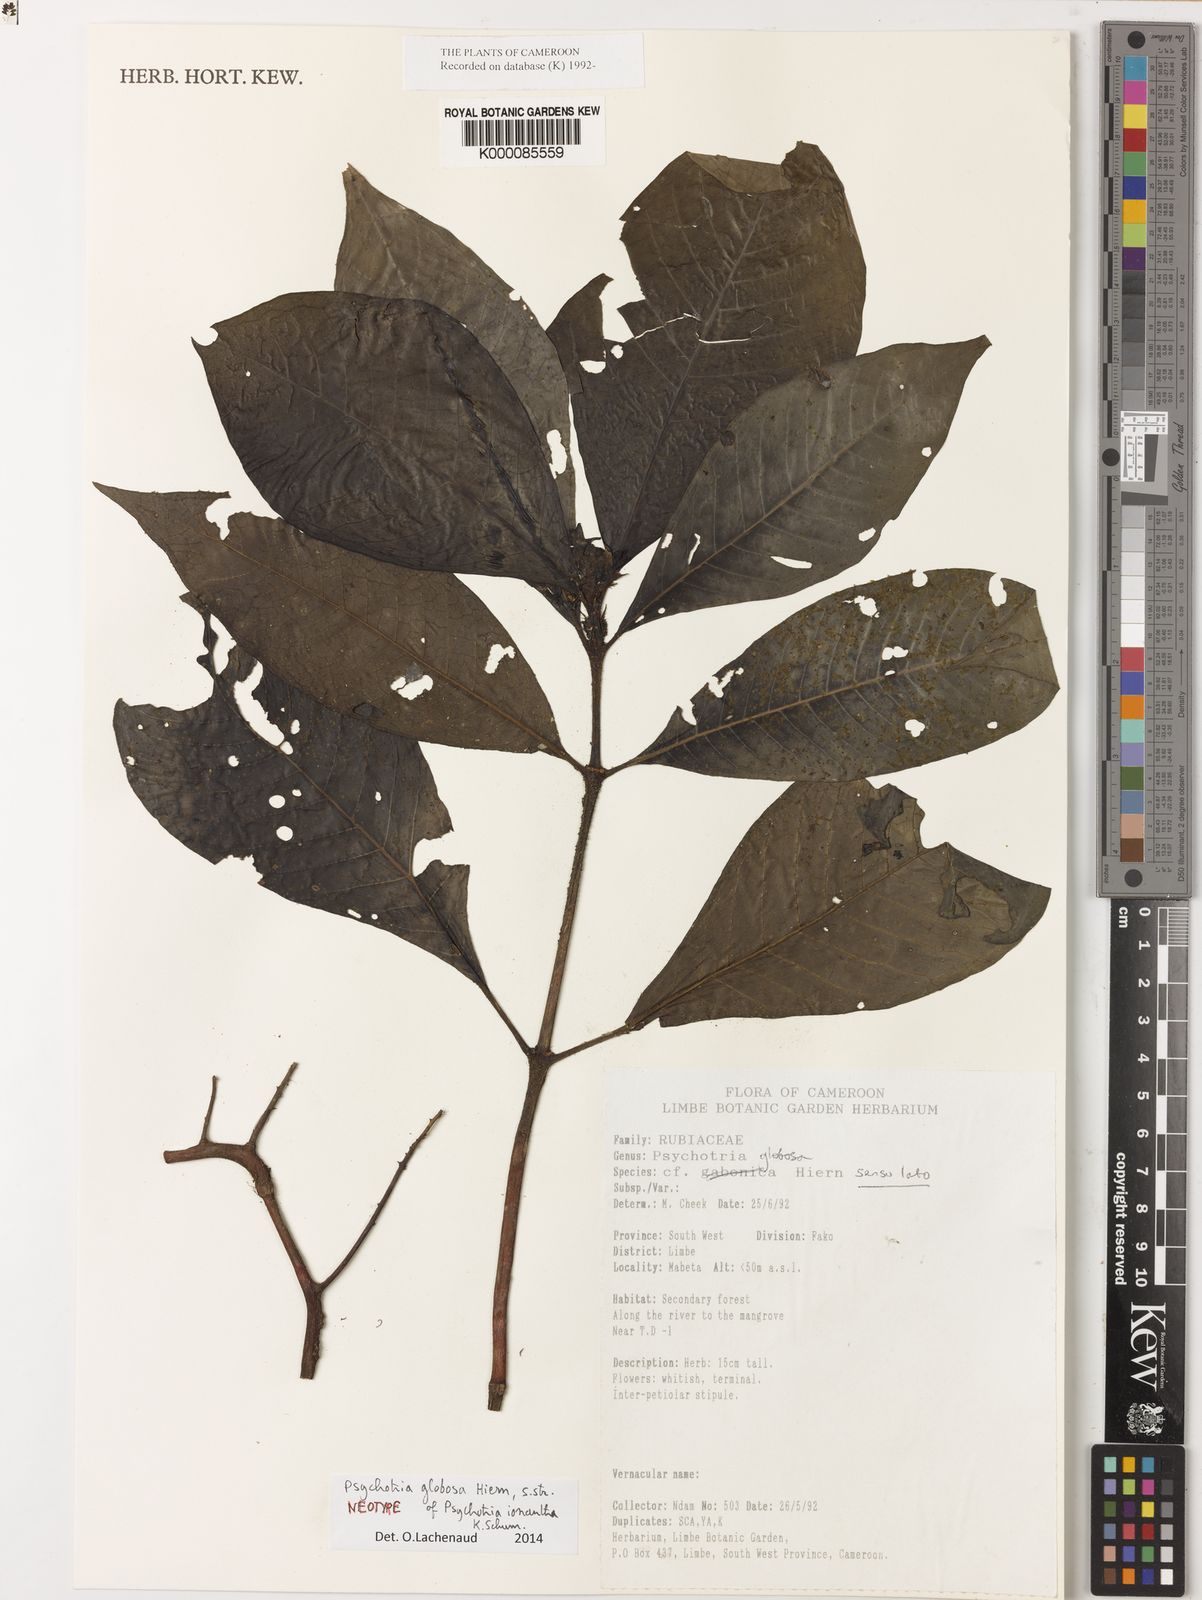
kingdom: Plantae
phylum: Tracheophyta
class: Magnoliopsida
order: Gentianales
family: Rubiaceae
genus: Psychotria
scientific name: Psychotria globosa
